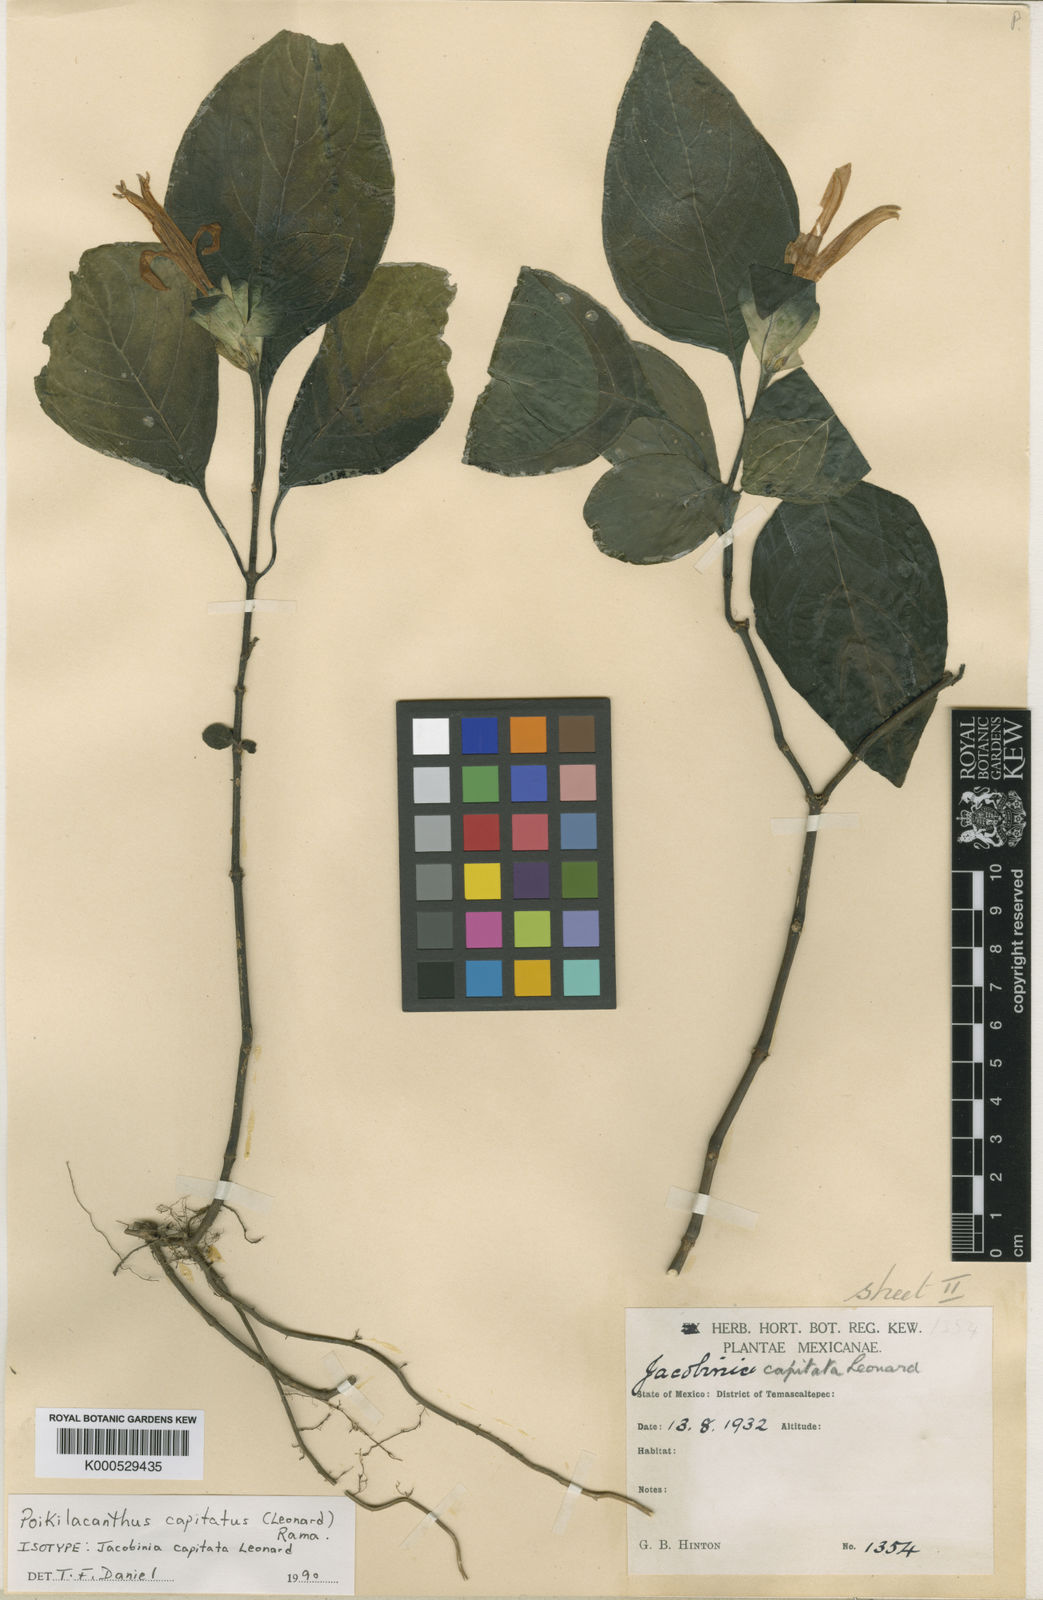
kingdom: Plantae
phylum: Tracheophyta
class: Magnoliopsida
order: Lamiales
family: Acanthaceae
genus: Poikilacanthus
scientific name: Poikilacanthus capitatus
